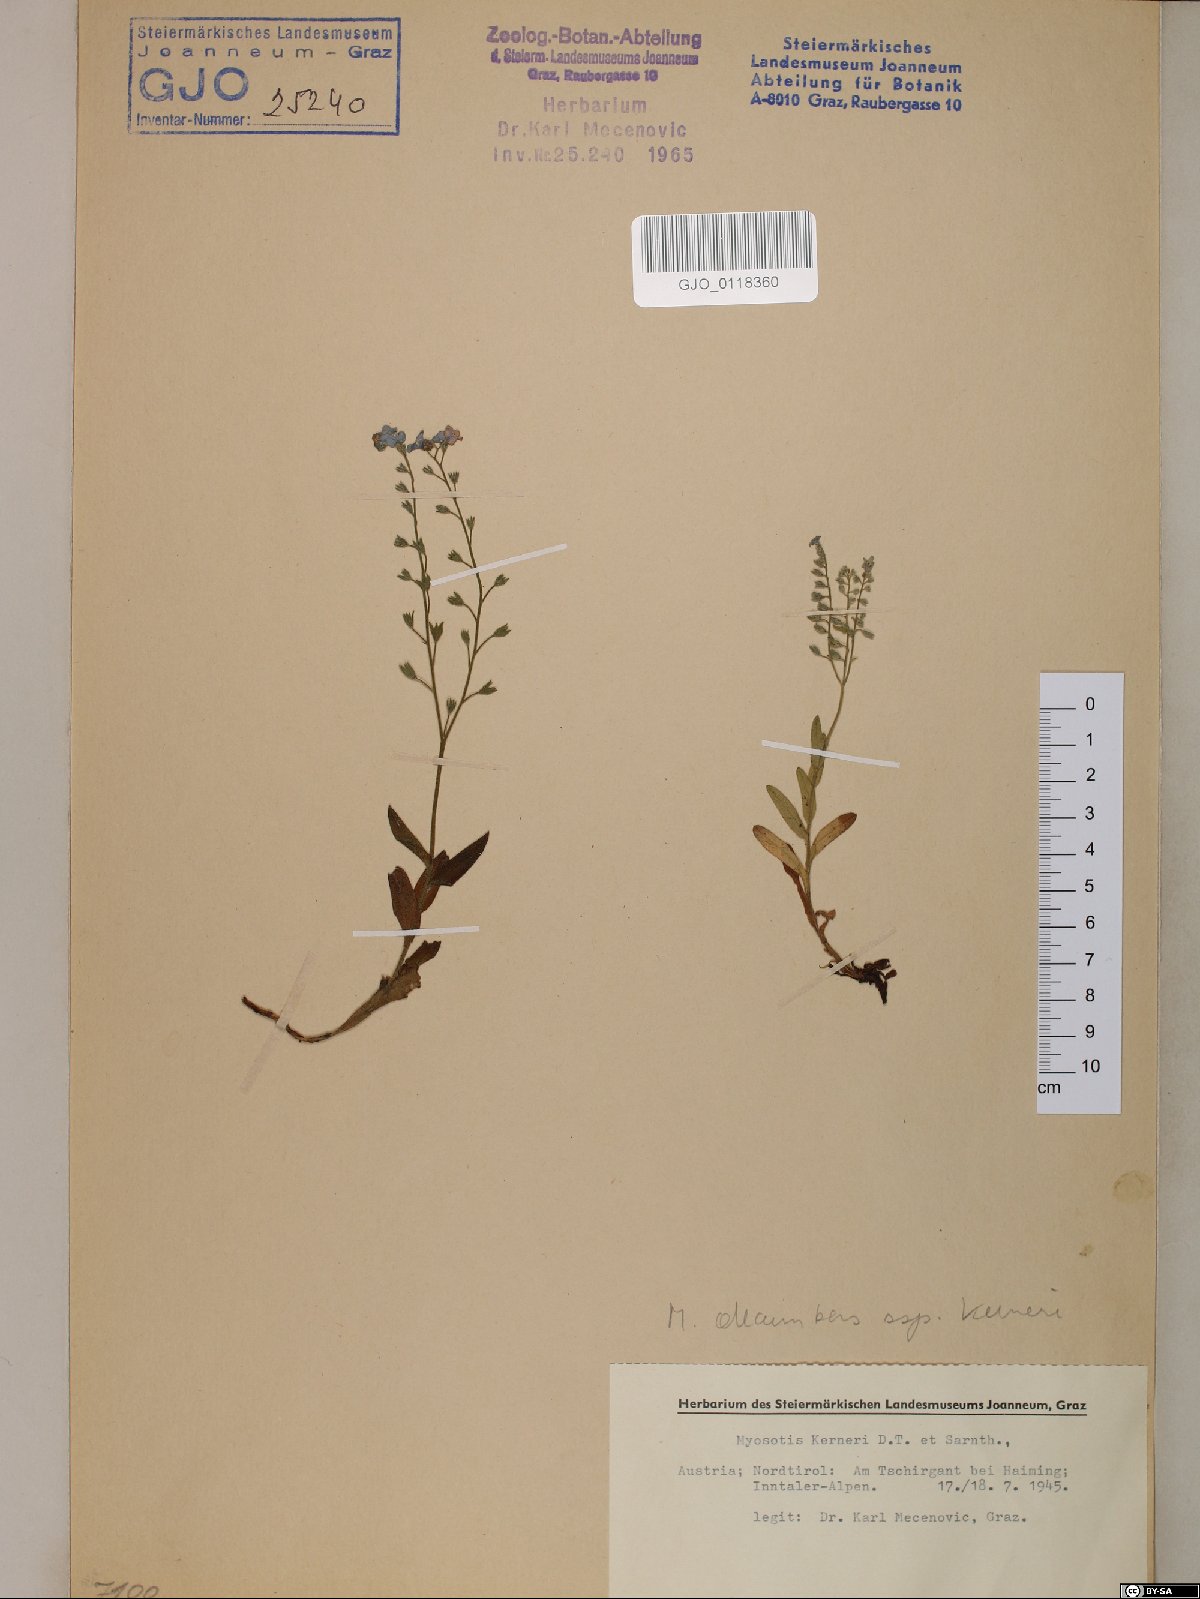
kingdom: Plantae
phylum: Tracheophyta
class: Magnoliopsida
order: Boraginales
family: Boraginaceae
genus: Myosotis
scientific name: Myosotis decumbens
